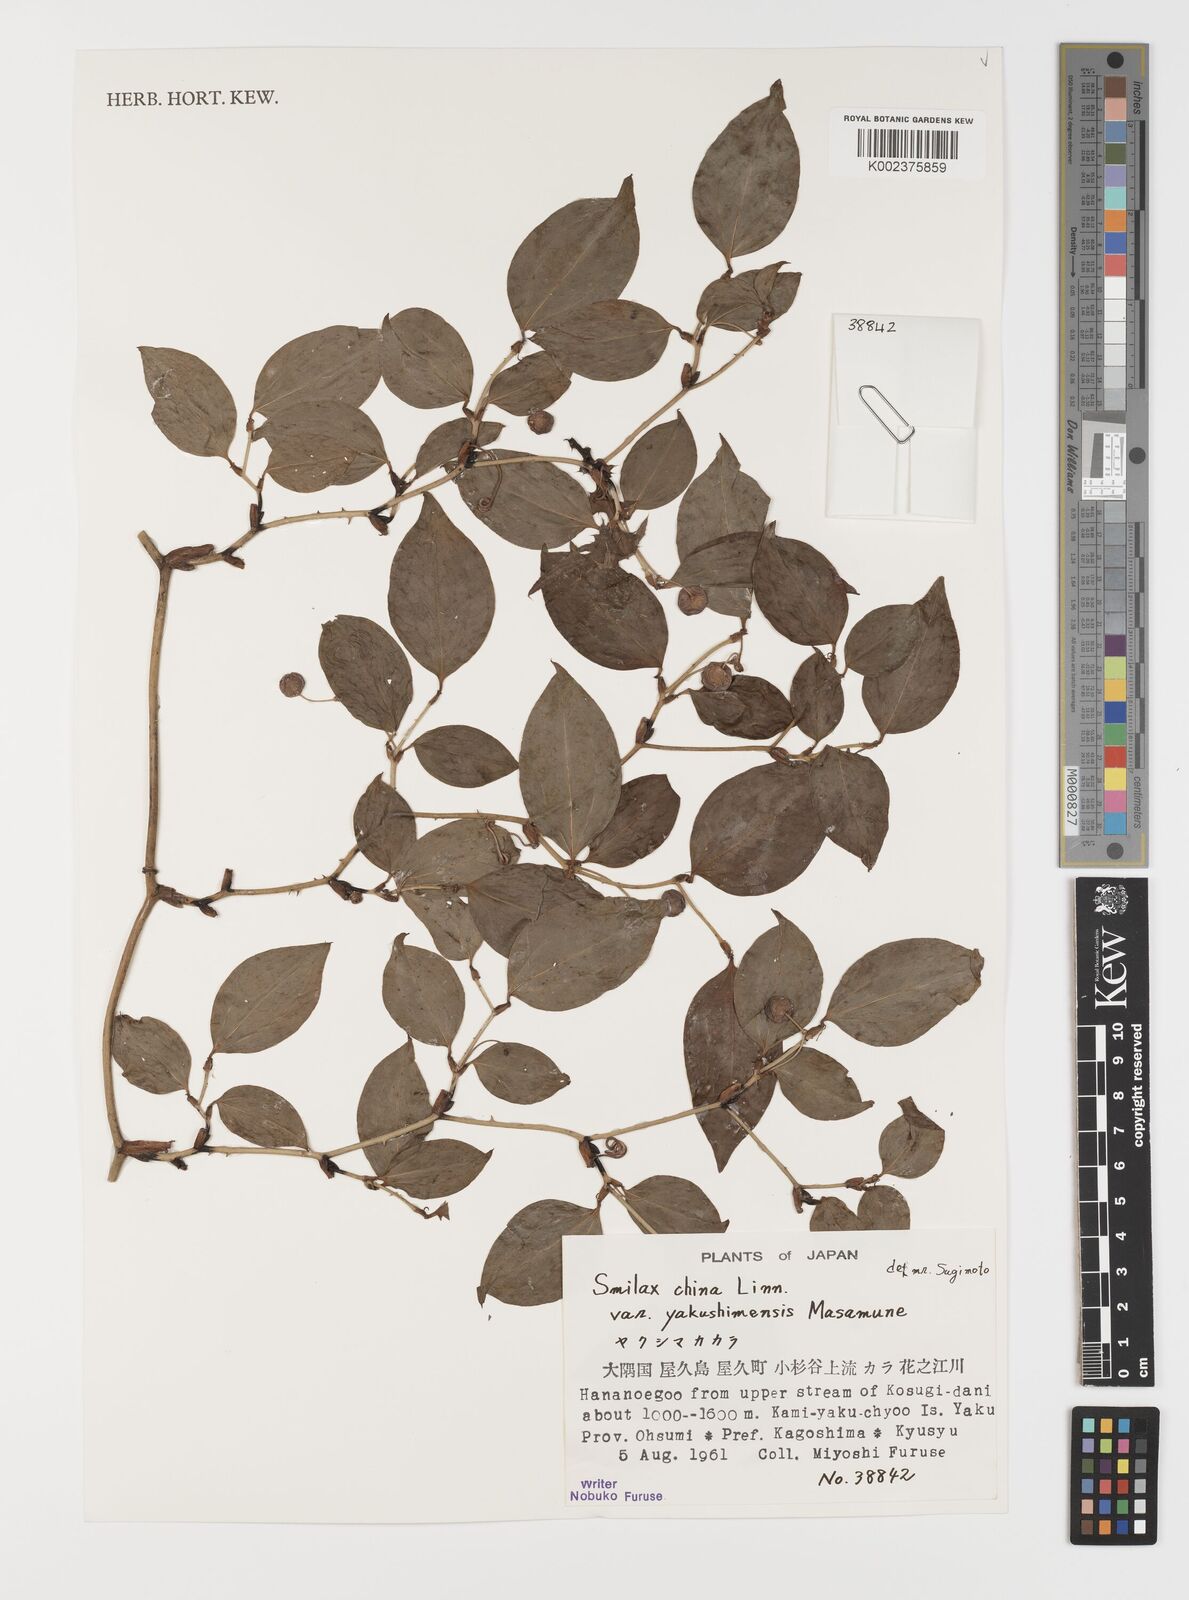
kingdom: Plantae
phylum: Tracheophyta
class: Liliopsida
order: Liliales
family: Smilacaceae
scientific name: Smilacaceae
